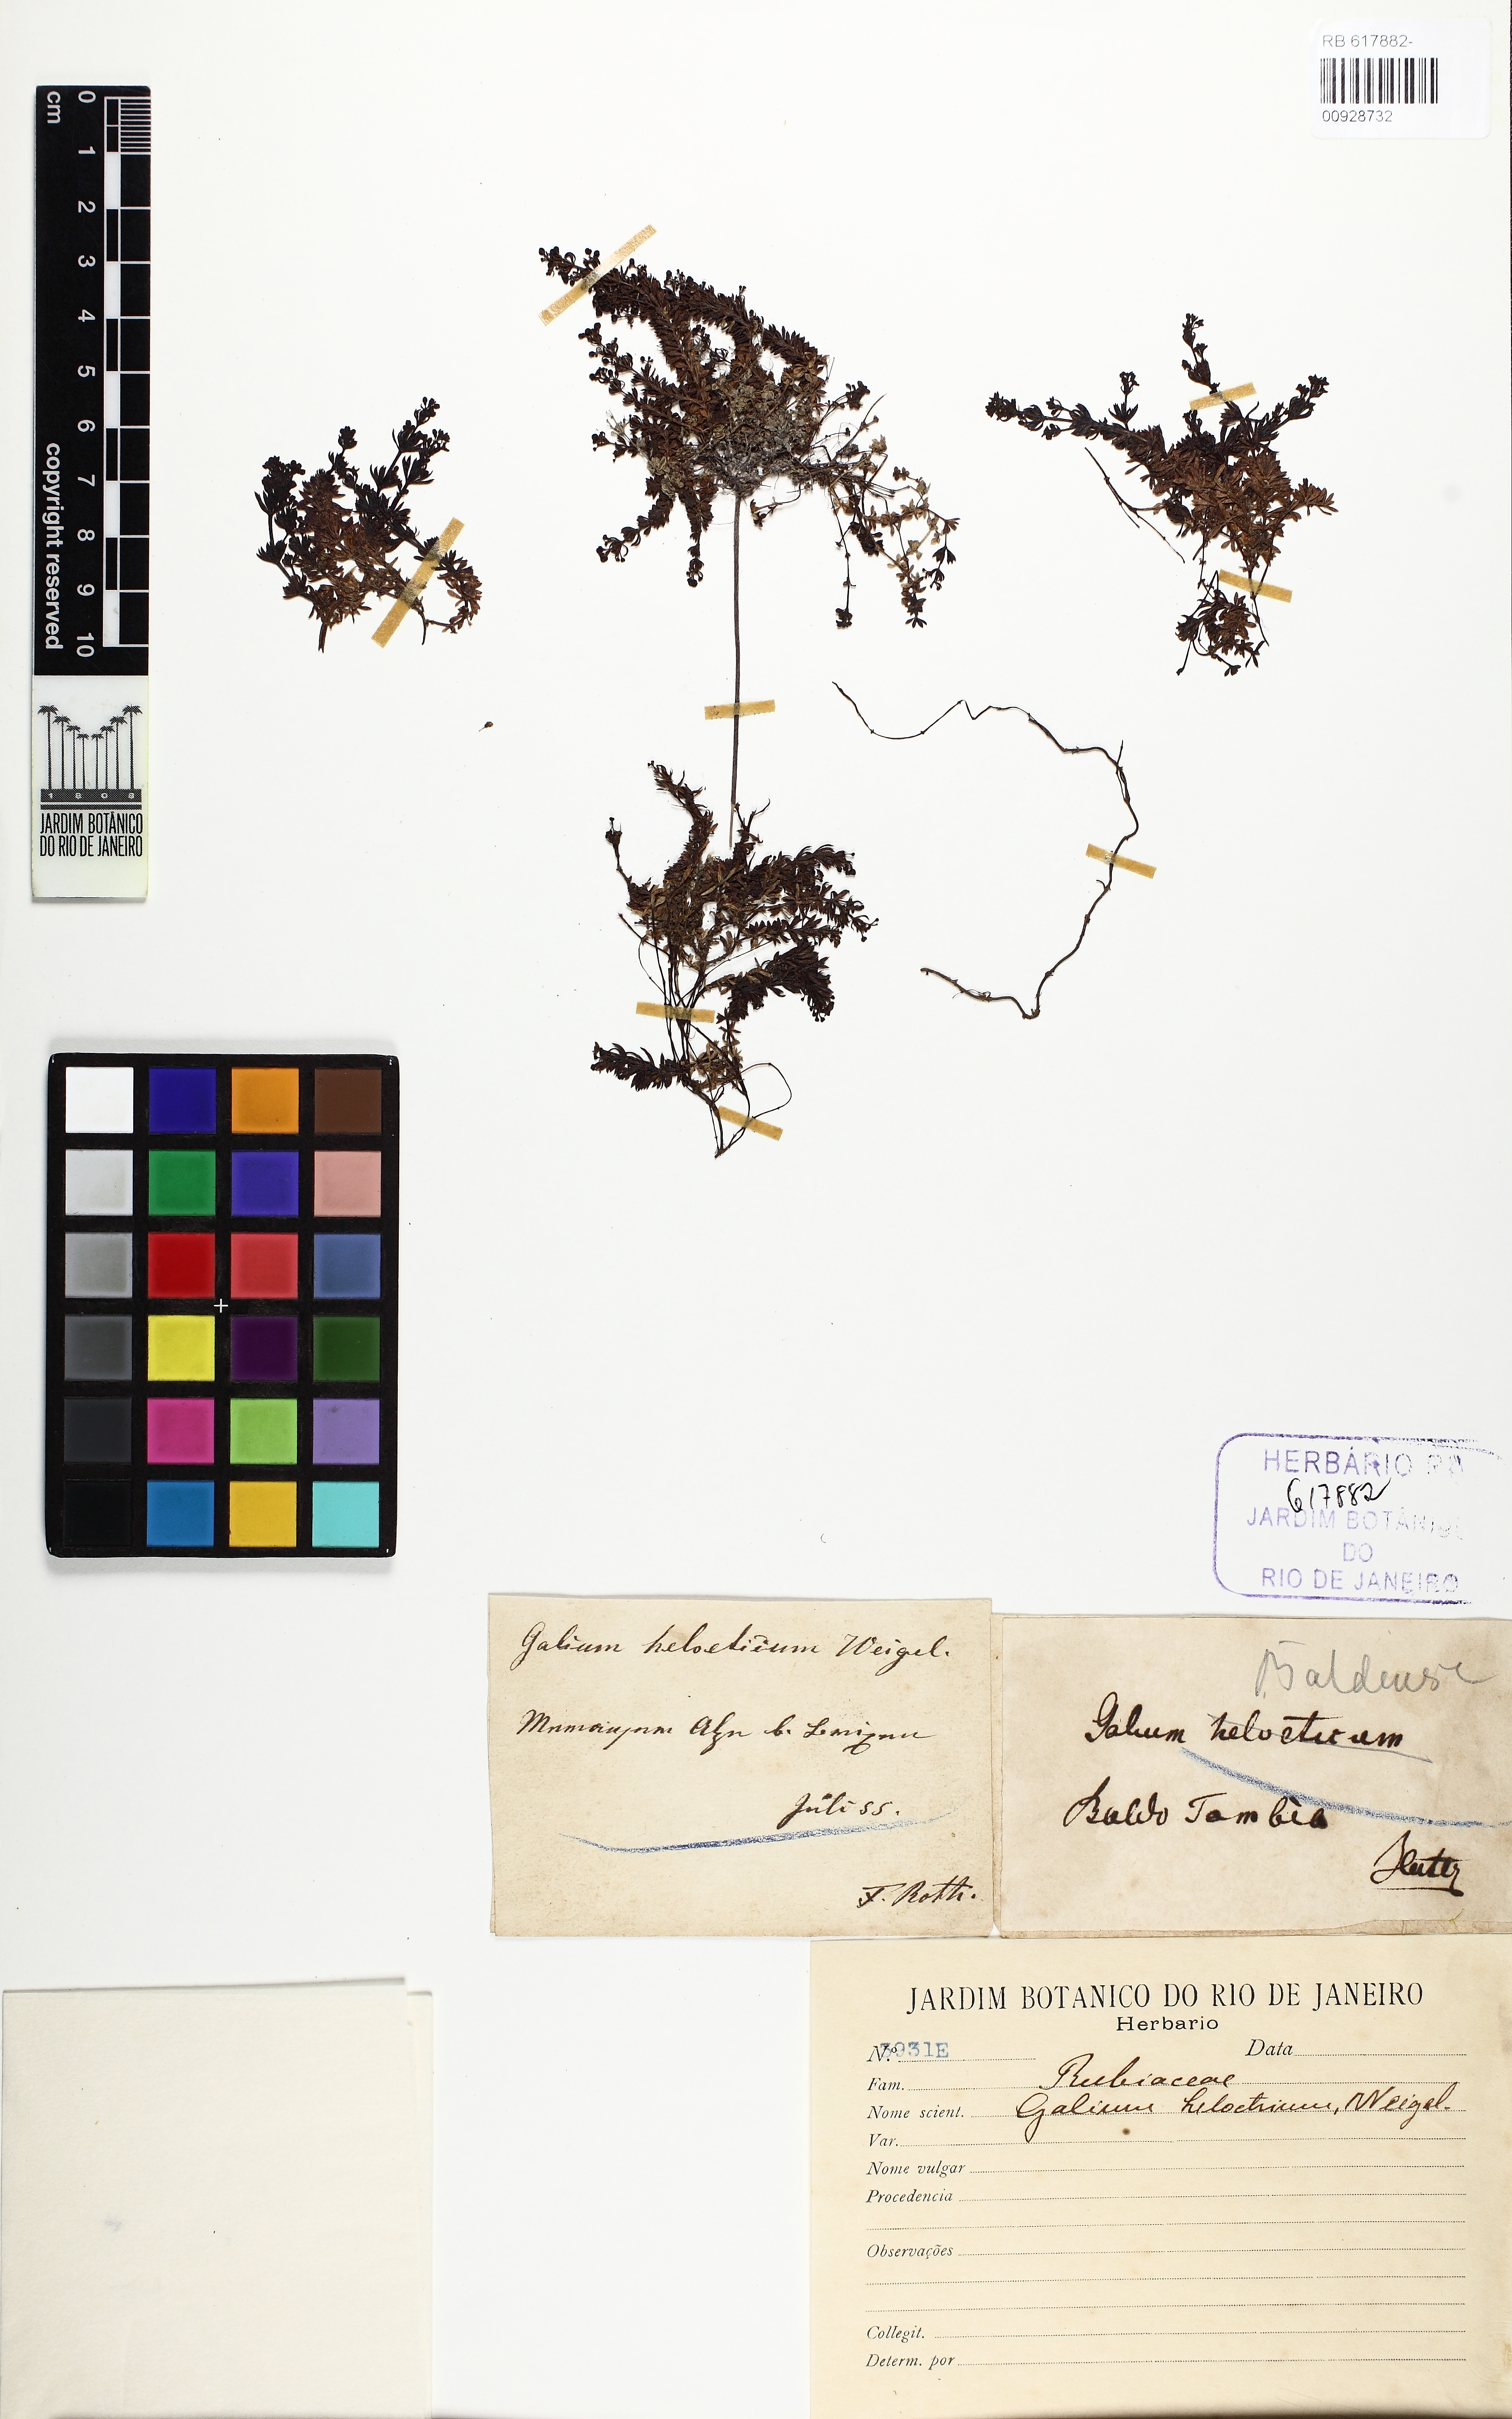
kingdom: Plantae
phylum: Tracheophyta
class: Magnoliopsida
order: Gentianales
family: Rubiaceae
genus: Galium
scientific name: Galium saxatile
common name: Heath bedstraw
